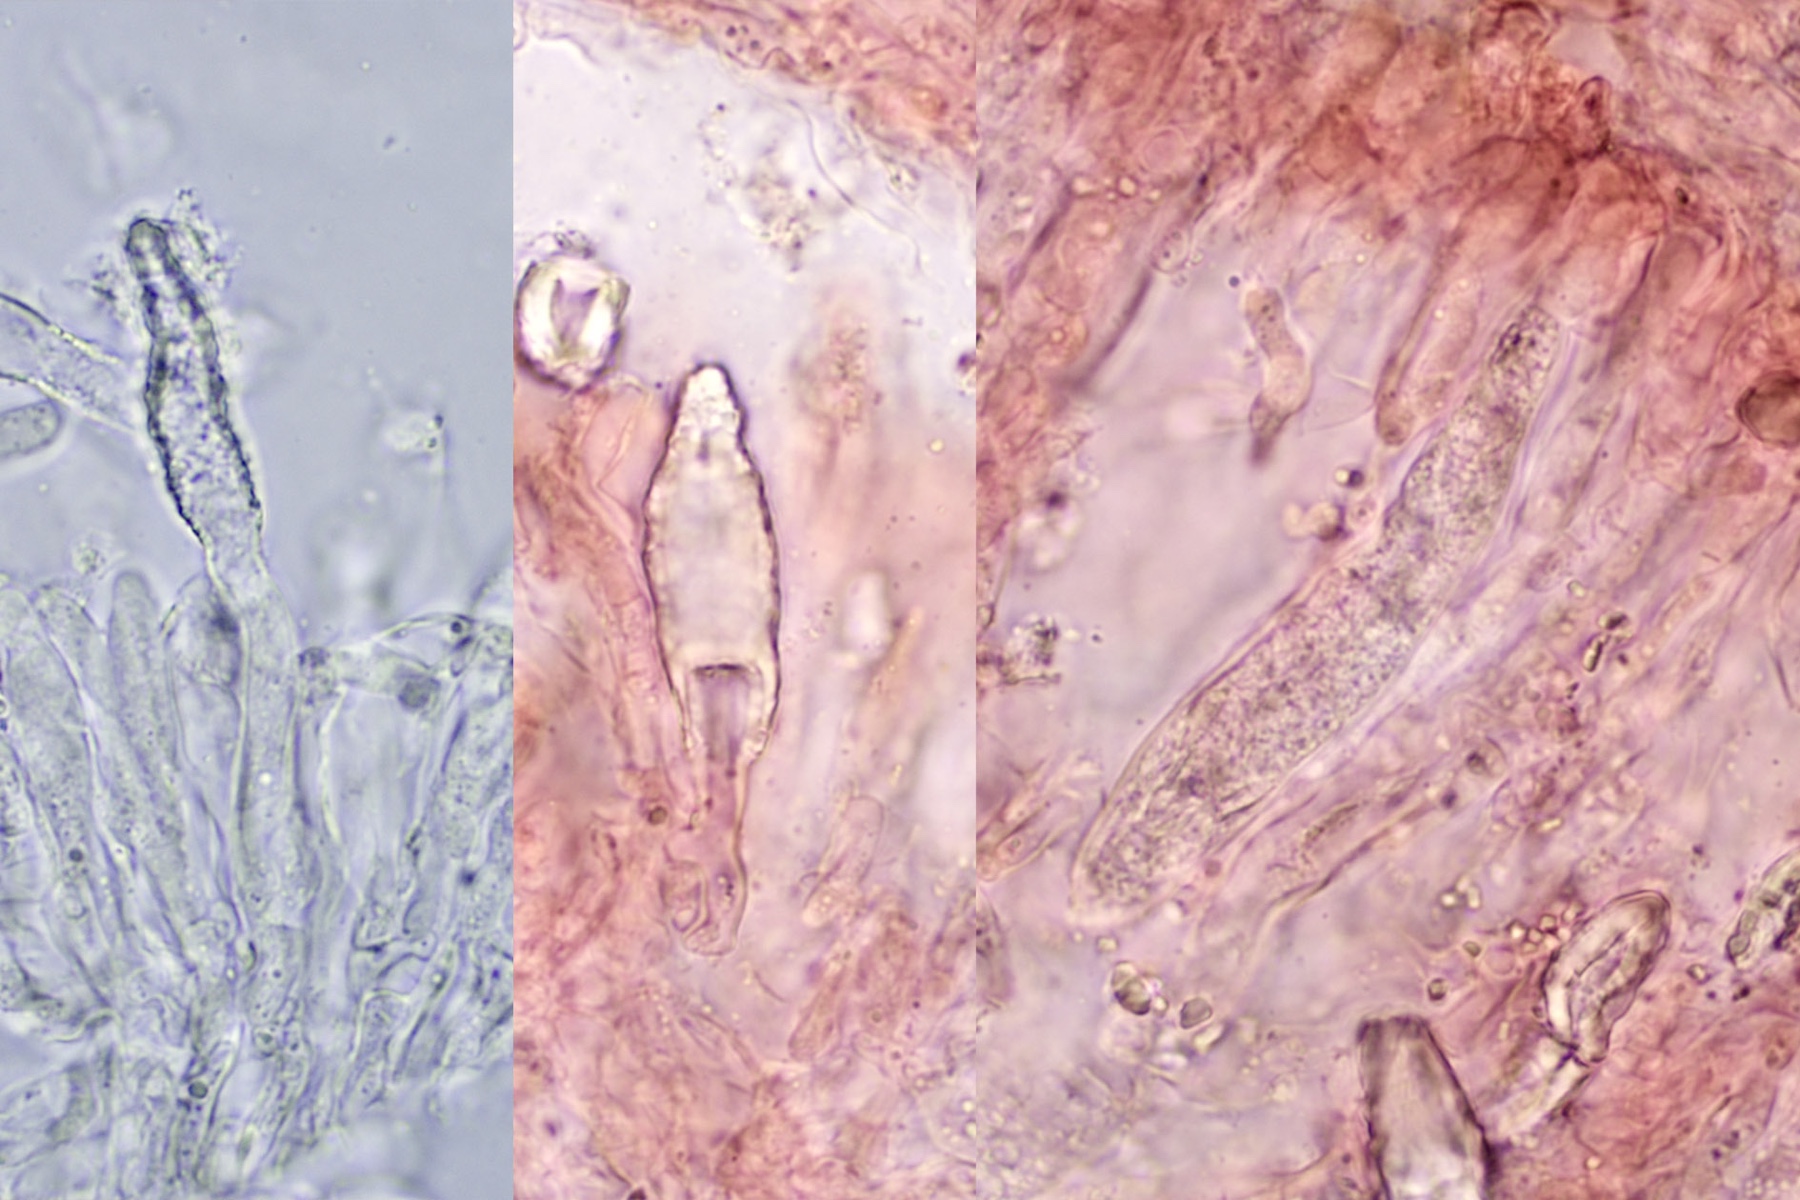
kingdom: Fungi
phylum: Basidiomycota
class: Agaricomycetes
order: Russulales
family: Peniophoraceae
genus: Peniophora
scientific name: Peniophora incarnata
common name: laksefarvet voksskind
